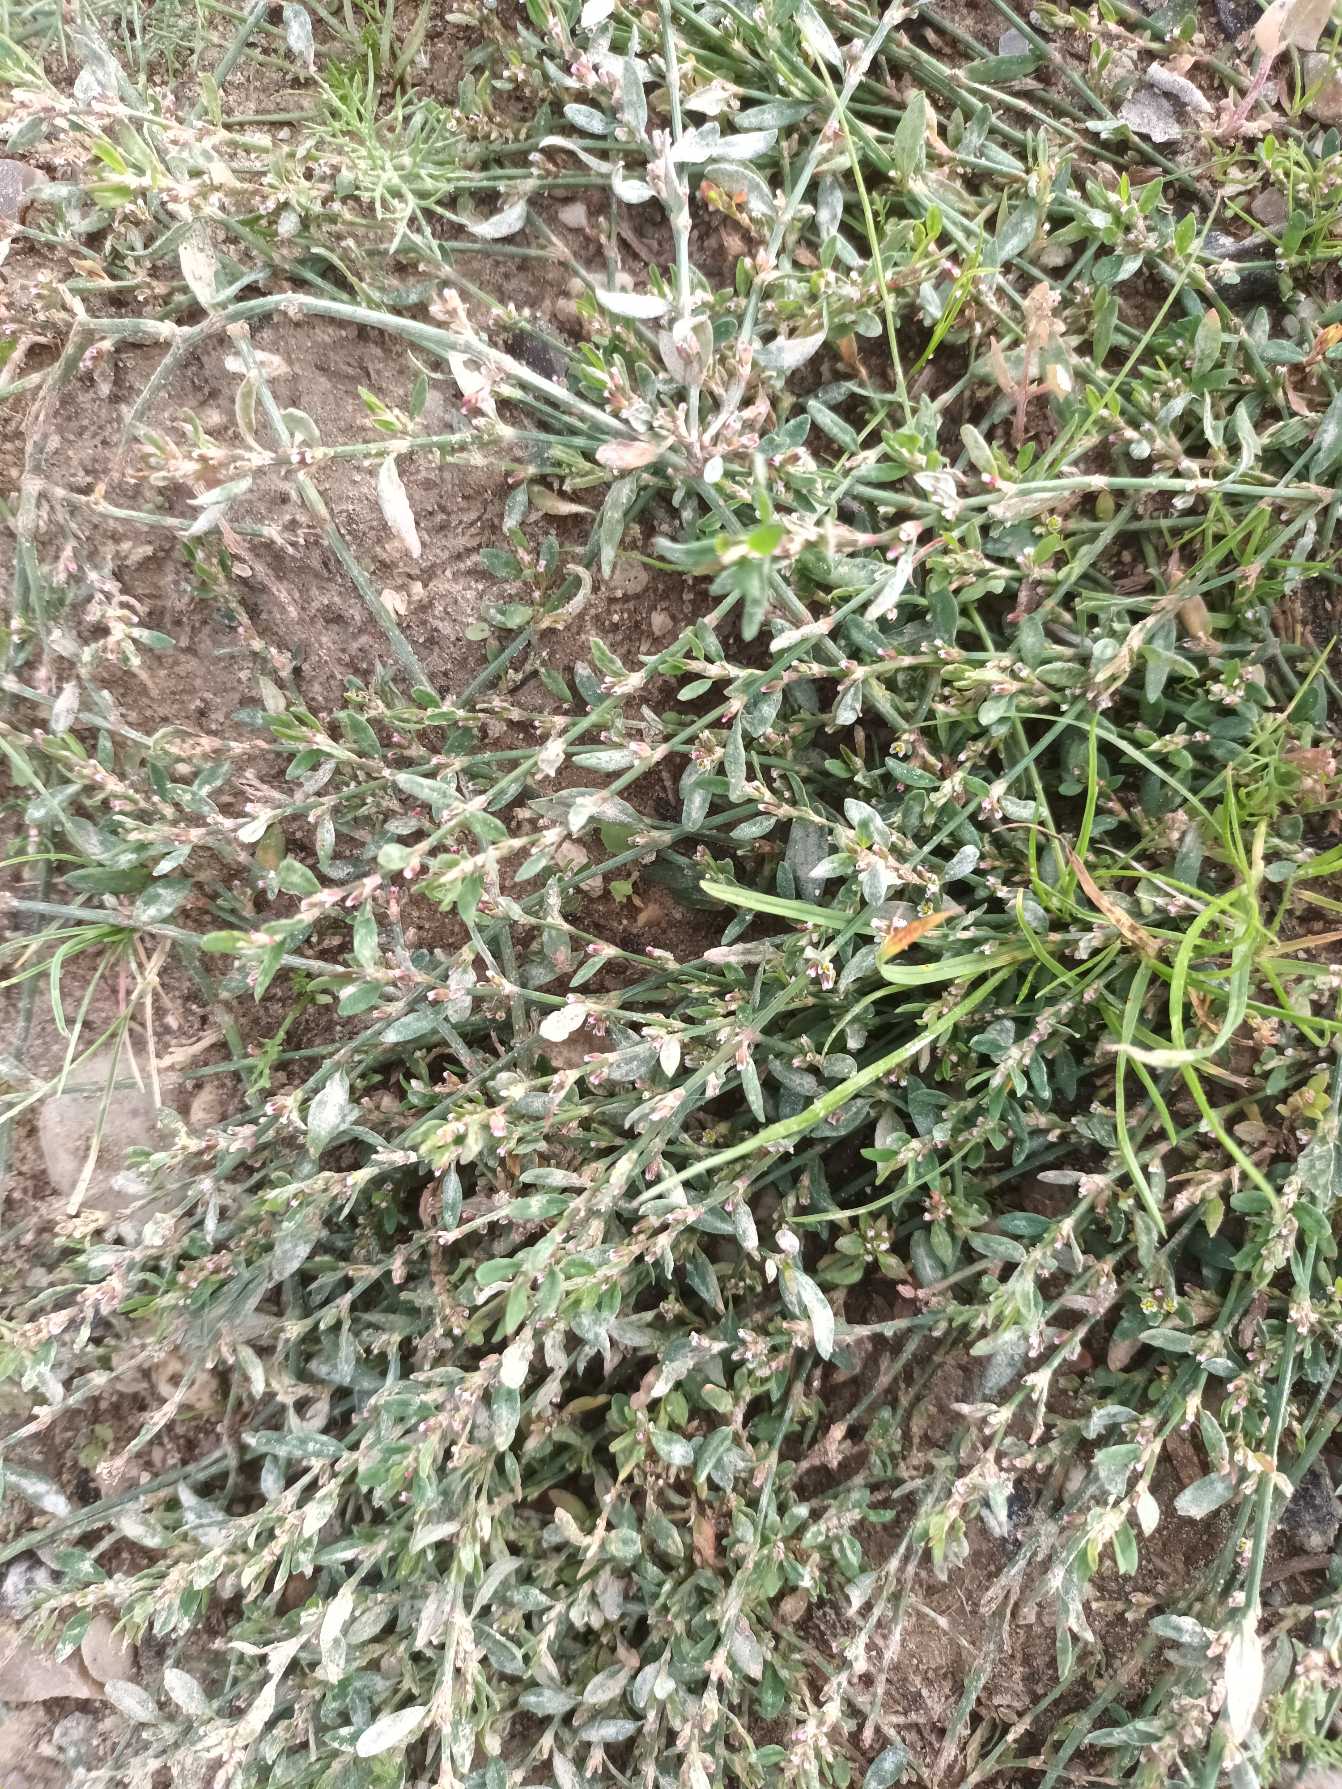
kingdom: Plantae
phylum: Tracheophyta
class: Magnoliopsida
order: Caryophyllales
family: Polygonaceae
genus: Polygonum
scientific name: Polygonum arenastrum
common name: Liggende vej-pileurt
